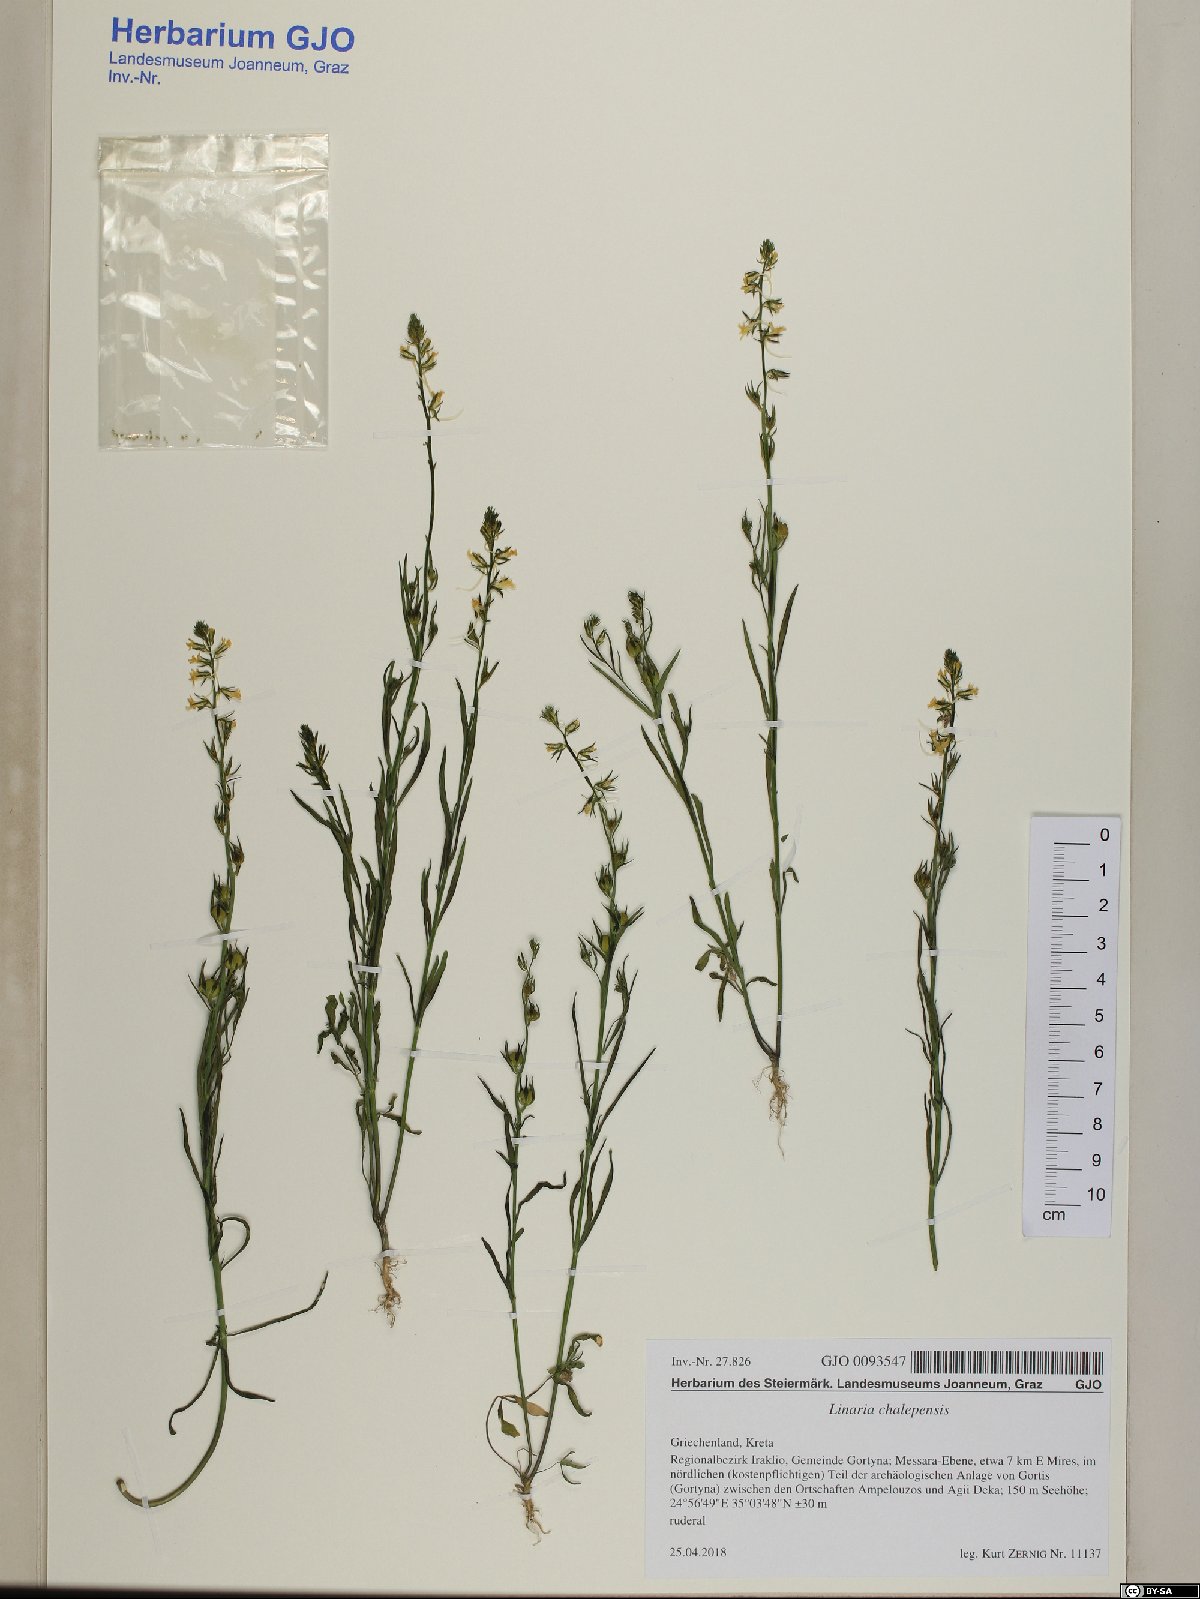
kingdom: Plantae
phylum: Tracheophyta
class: Magnoliopsida
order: Lamiales
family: Plantaginaceae
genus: Linaria
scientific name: Linaria chalepensis
